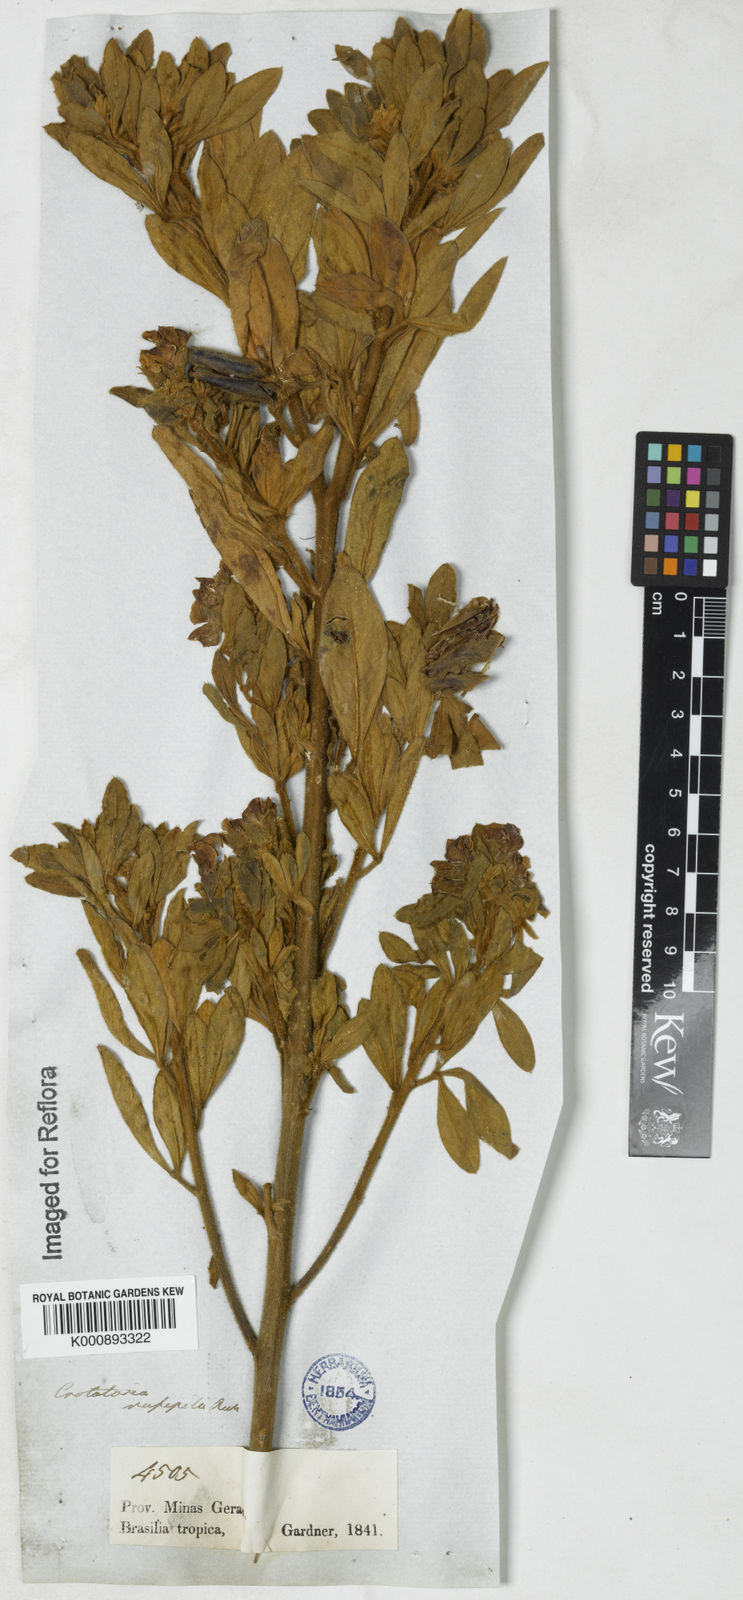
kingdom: Plantae
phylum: Tracheophyta
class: Magnoliopsida
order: Fabales
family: Fabaceae
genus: Crotalaria
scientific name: Crotalaria rufipila
